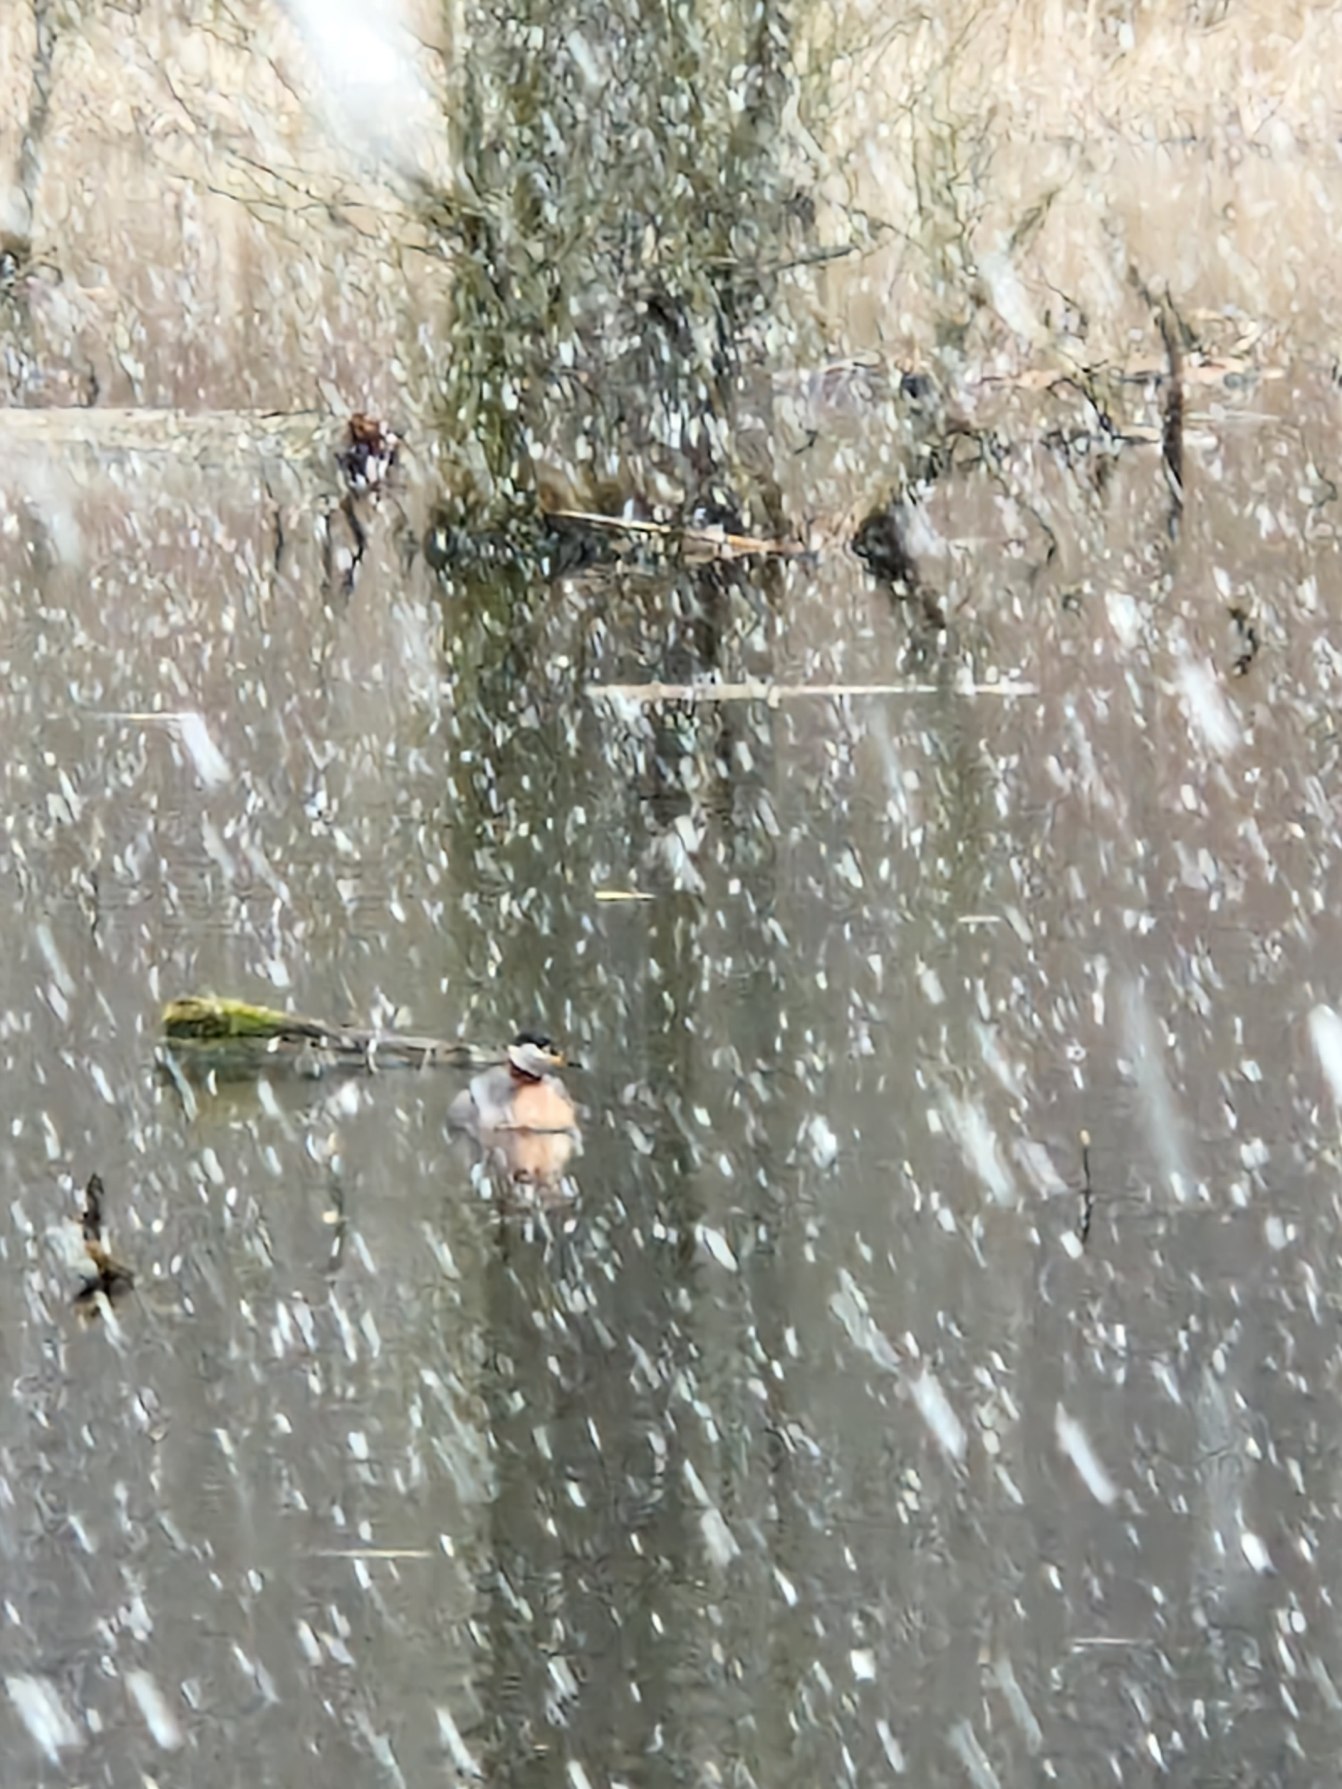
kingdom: Animalia
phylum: Chordata
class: Aves
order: Podicipediformes
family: Podicipedidae
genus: Podiceps
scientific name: Podiceps grisegena
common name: Gråstrubet lappedykker
